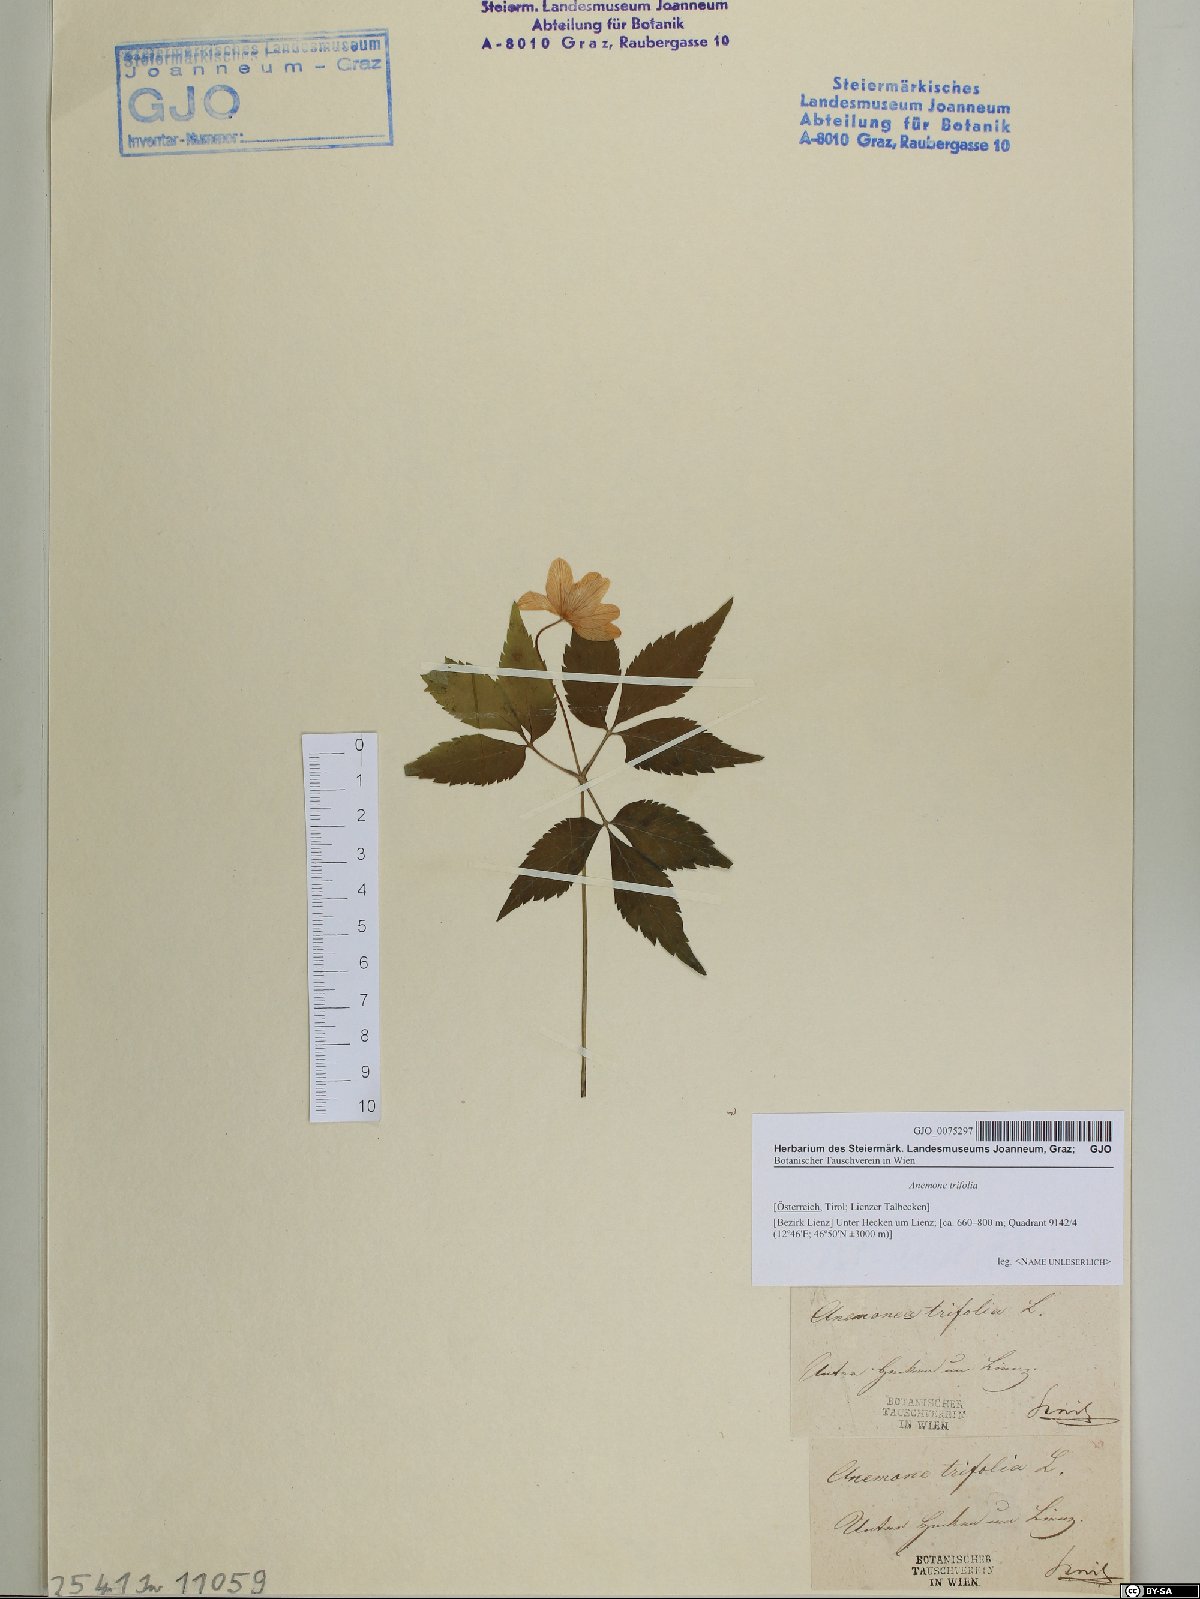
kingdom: Plantae
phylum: Tracheophyta
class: Magnoliopsida
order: Ranunculales
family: Ranunculaceae
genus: Anemone
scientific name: Anemone trifolia
